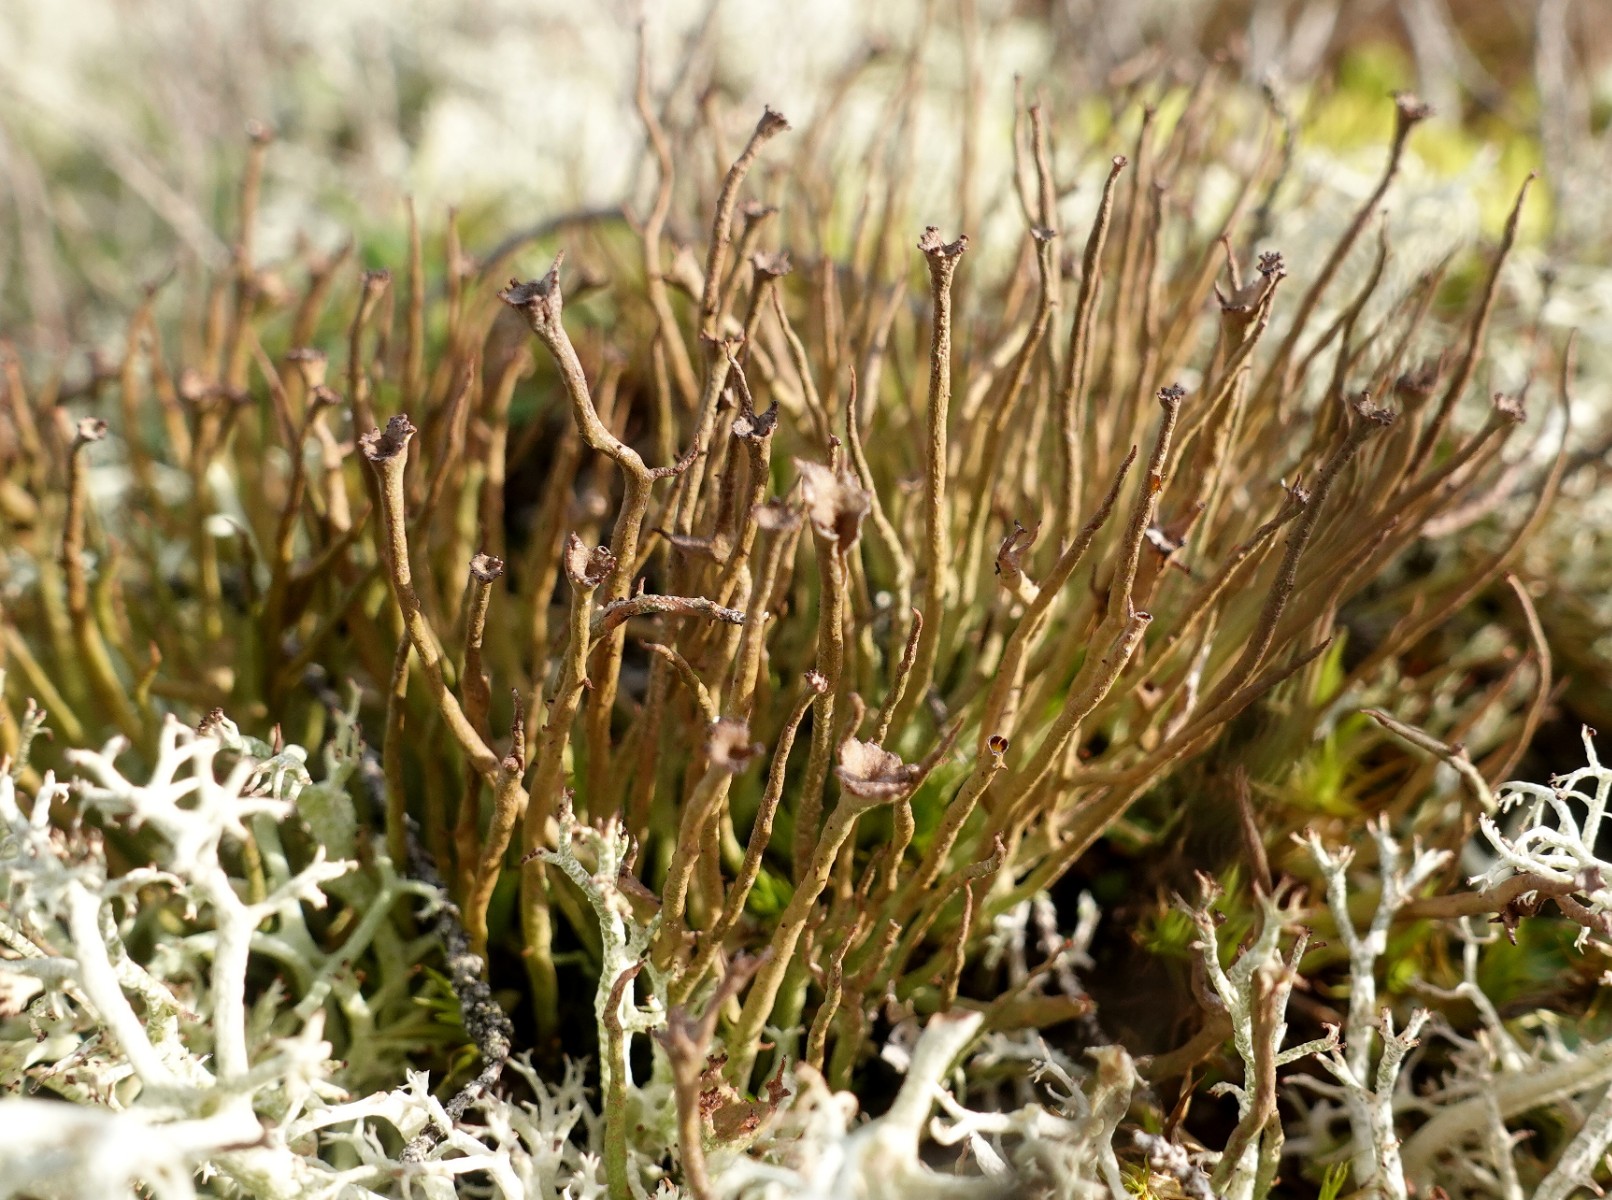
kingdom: Fungi
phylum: Ascomycota
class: Lecanoromycetes
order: Lecanorales
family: Cladoniaceae
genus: Cladonia
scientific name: Cladonia gracilis
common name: slank bægerlav
